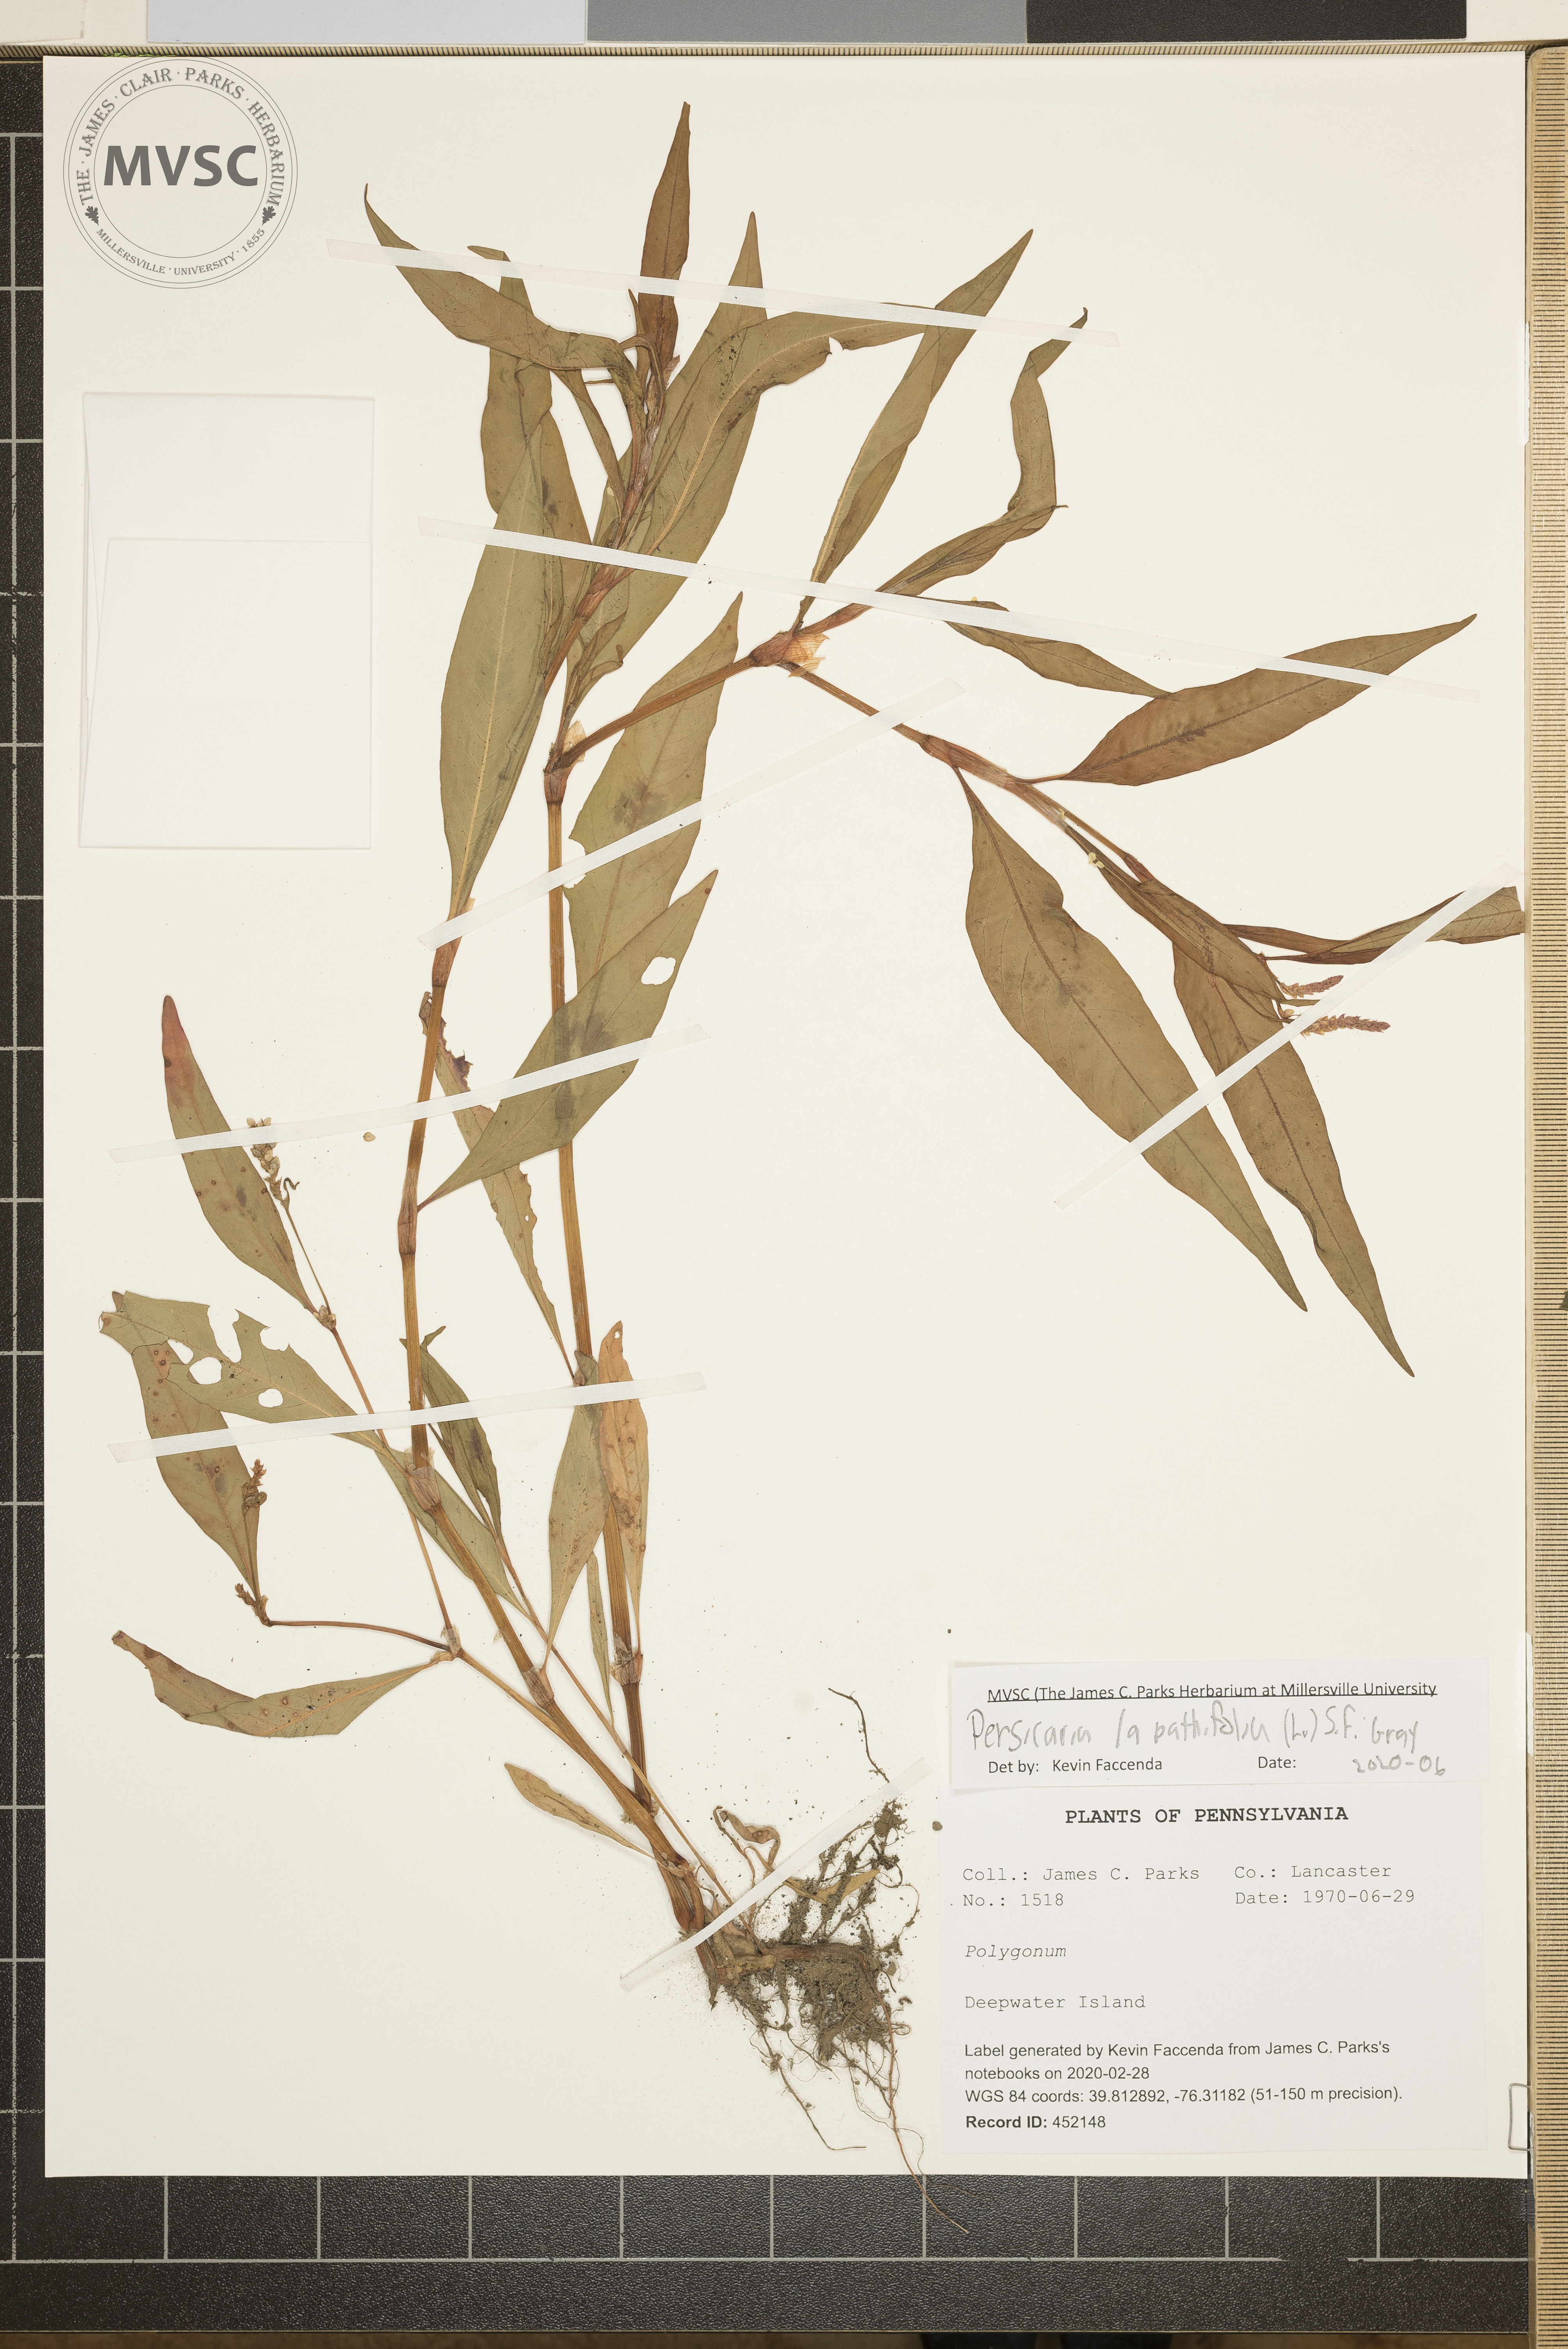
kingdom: Plantae
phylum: Tracheophyta
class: Magnoliopsida
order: Caryophyllales
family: Polygonaceae
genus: Persicaria
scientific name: Persicaria lapathifolia
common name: Curlytop knotweed
